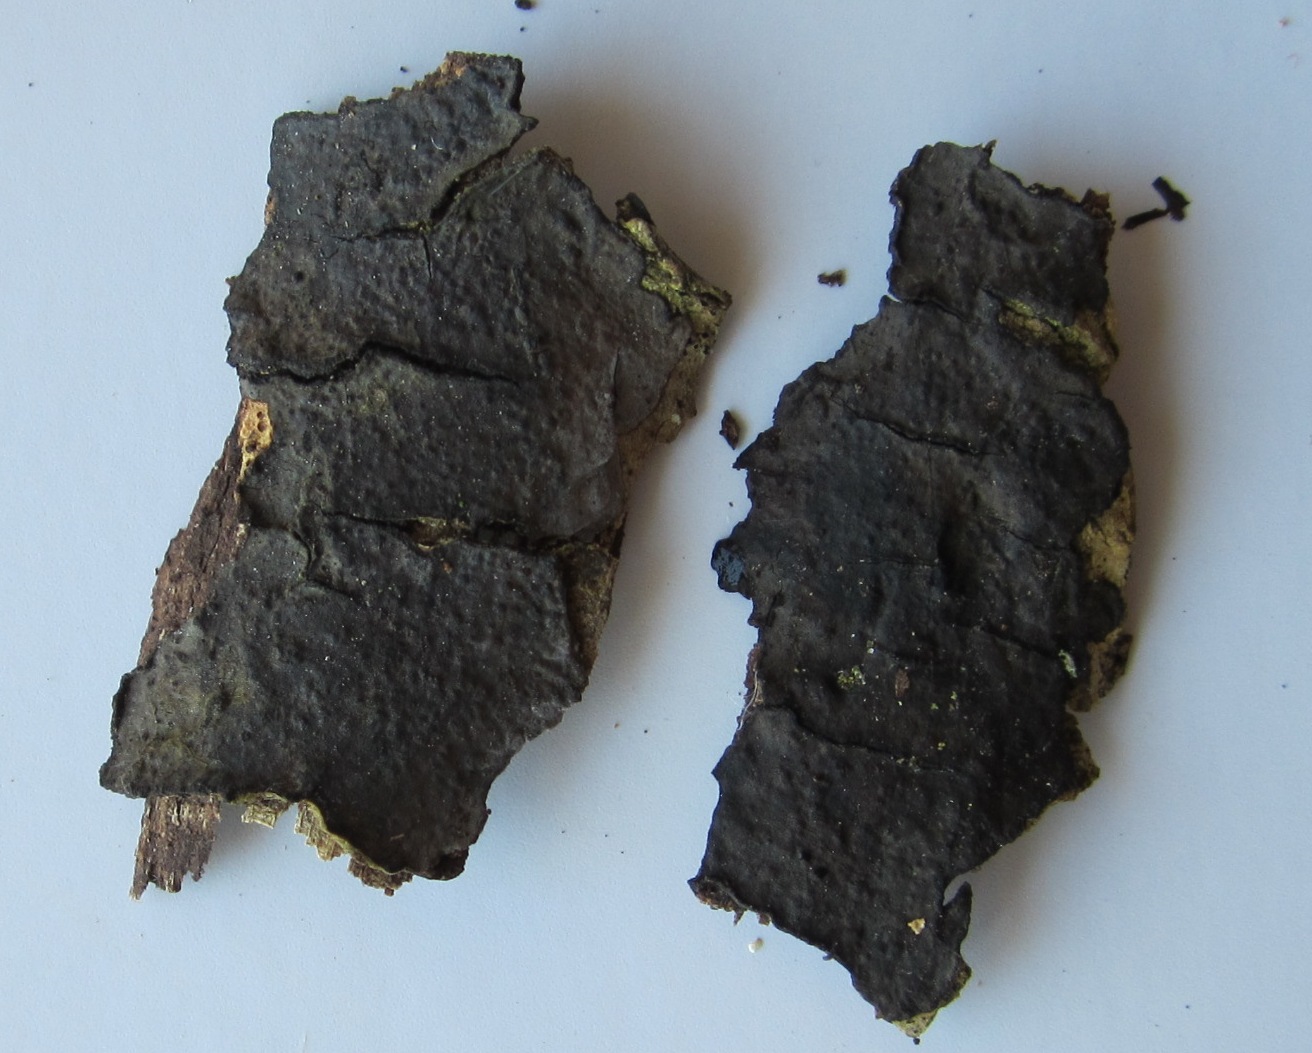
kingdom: Fungi
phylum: Basidiomycota
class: Agaricomycetes
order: Russulales
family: Peniophoraceae
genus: Peniophora
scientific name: Peniophora limitata
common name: mørkrandet voksskind
